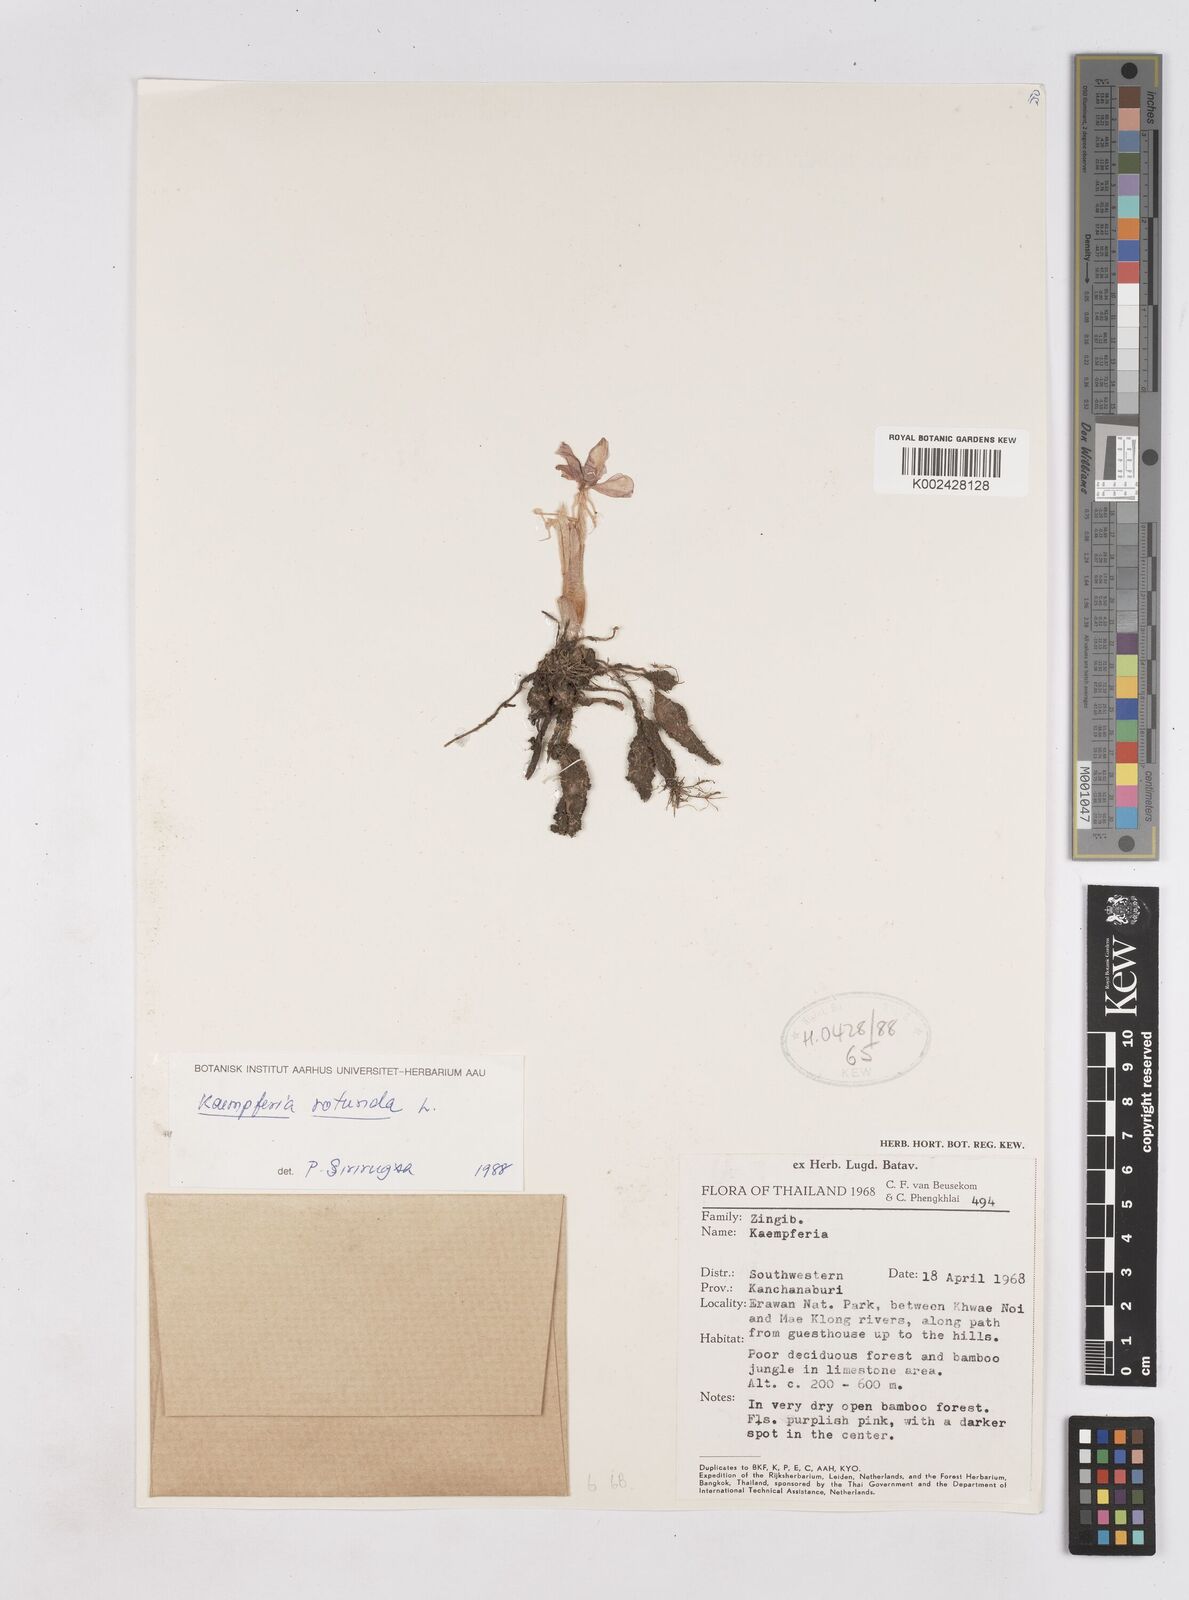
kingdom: Plantae
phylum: Tracheophyta
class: Liliopsida
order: Zingiberales
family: Zingiberaceae
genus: Kaempferia
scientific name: Kaempferia rotunda
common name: Tropical-crocus
